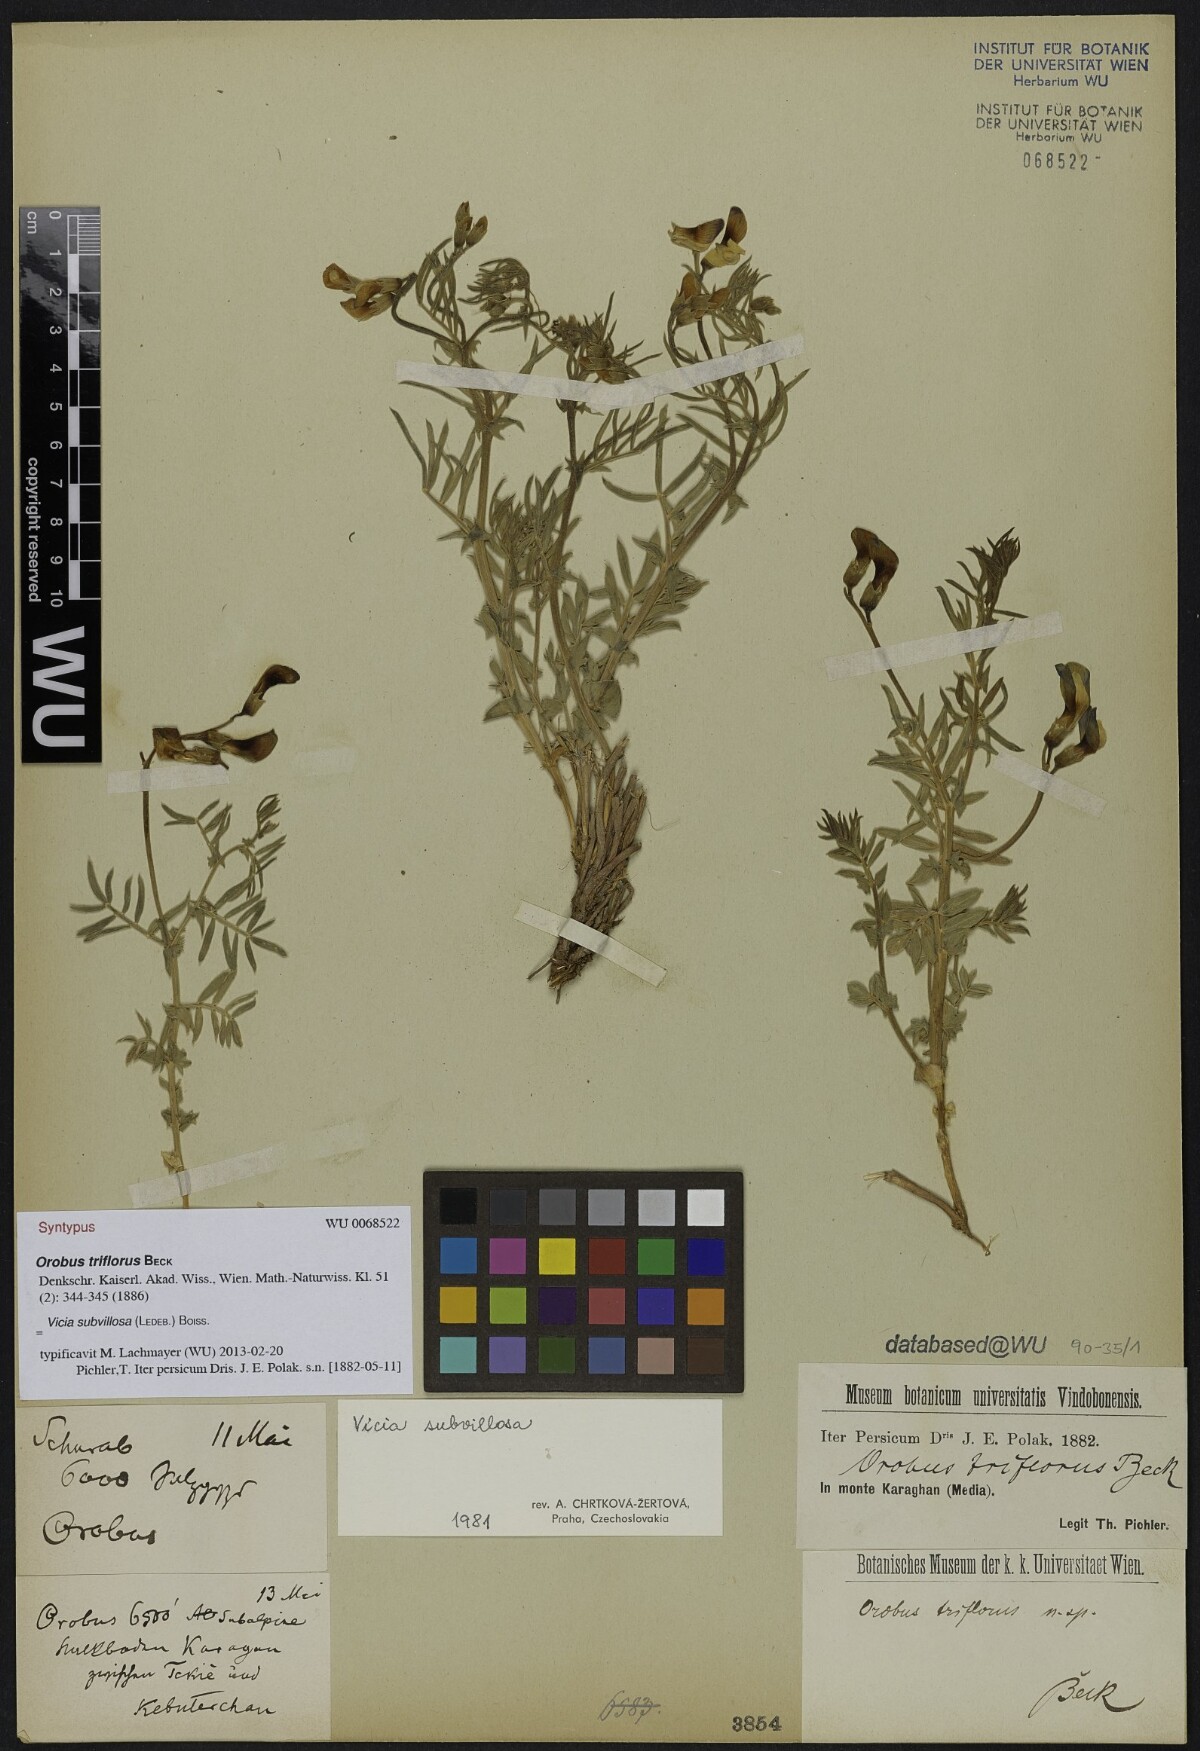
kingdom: Plantae
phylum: Tracheophyta
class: Magnoliopsida
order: Fabales
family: Fabaceae
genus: Vicia
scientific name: Vicia subvillosa
